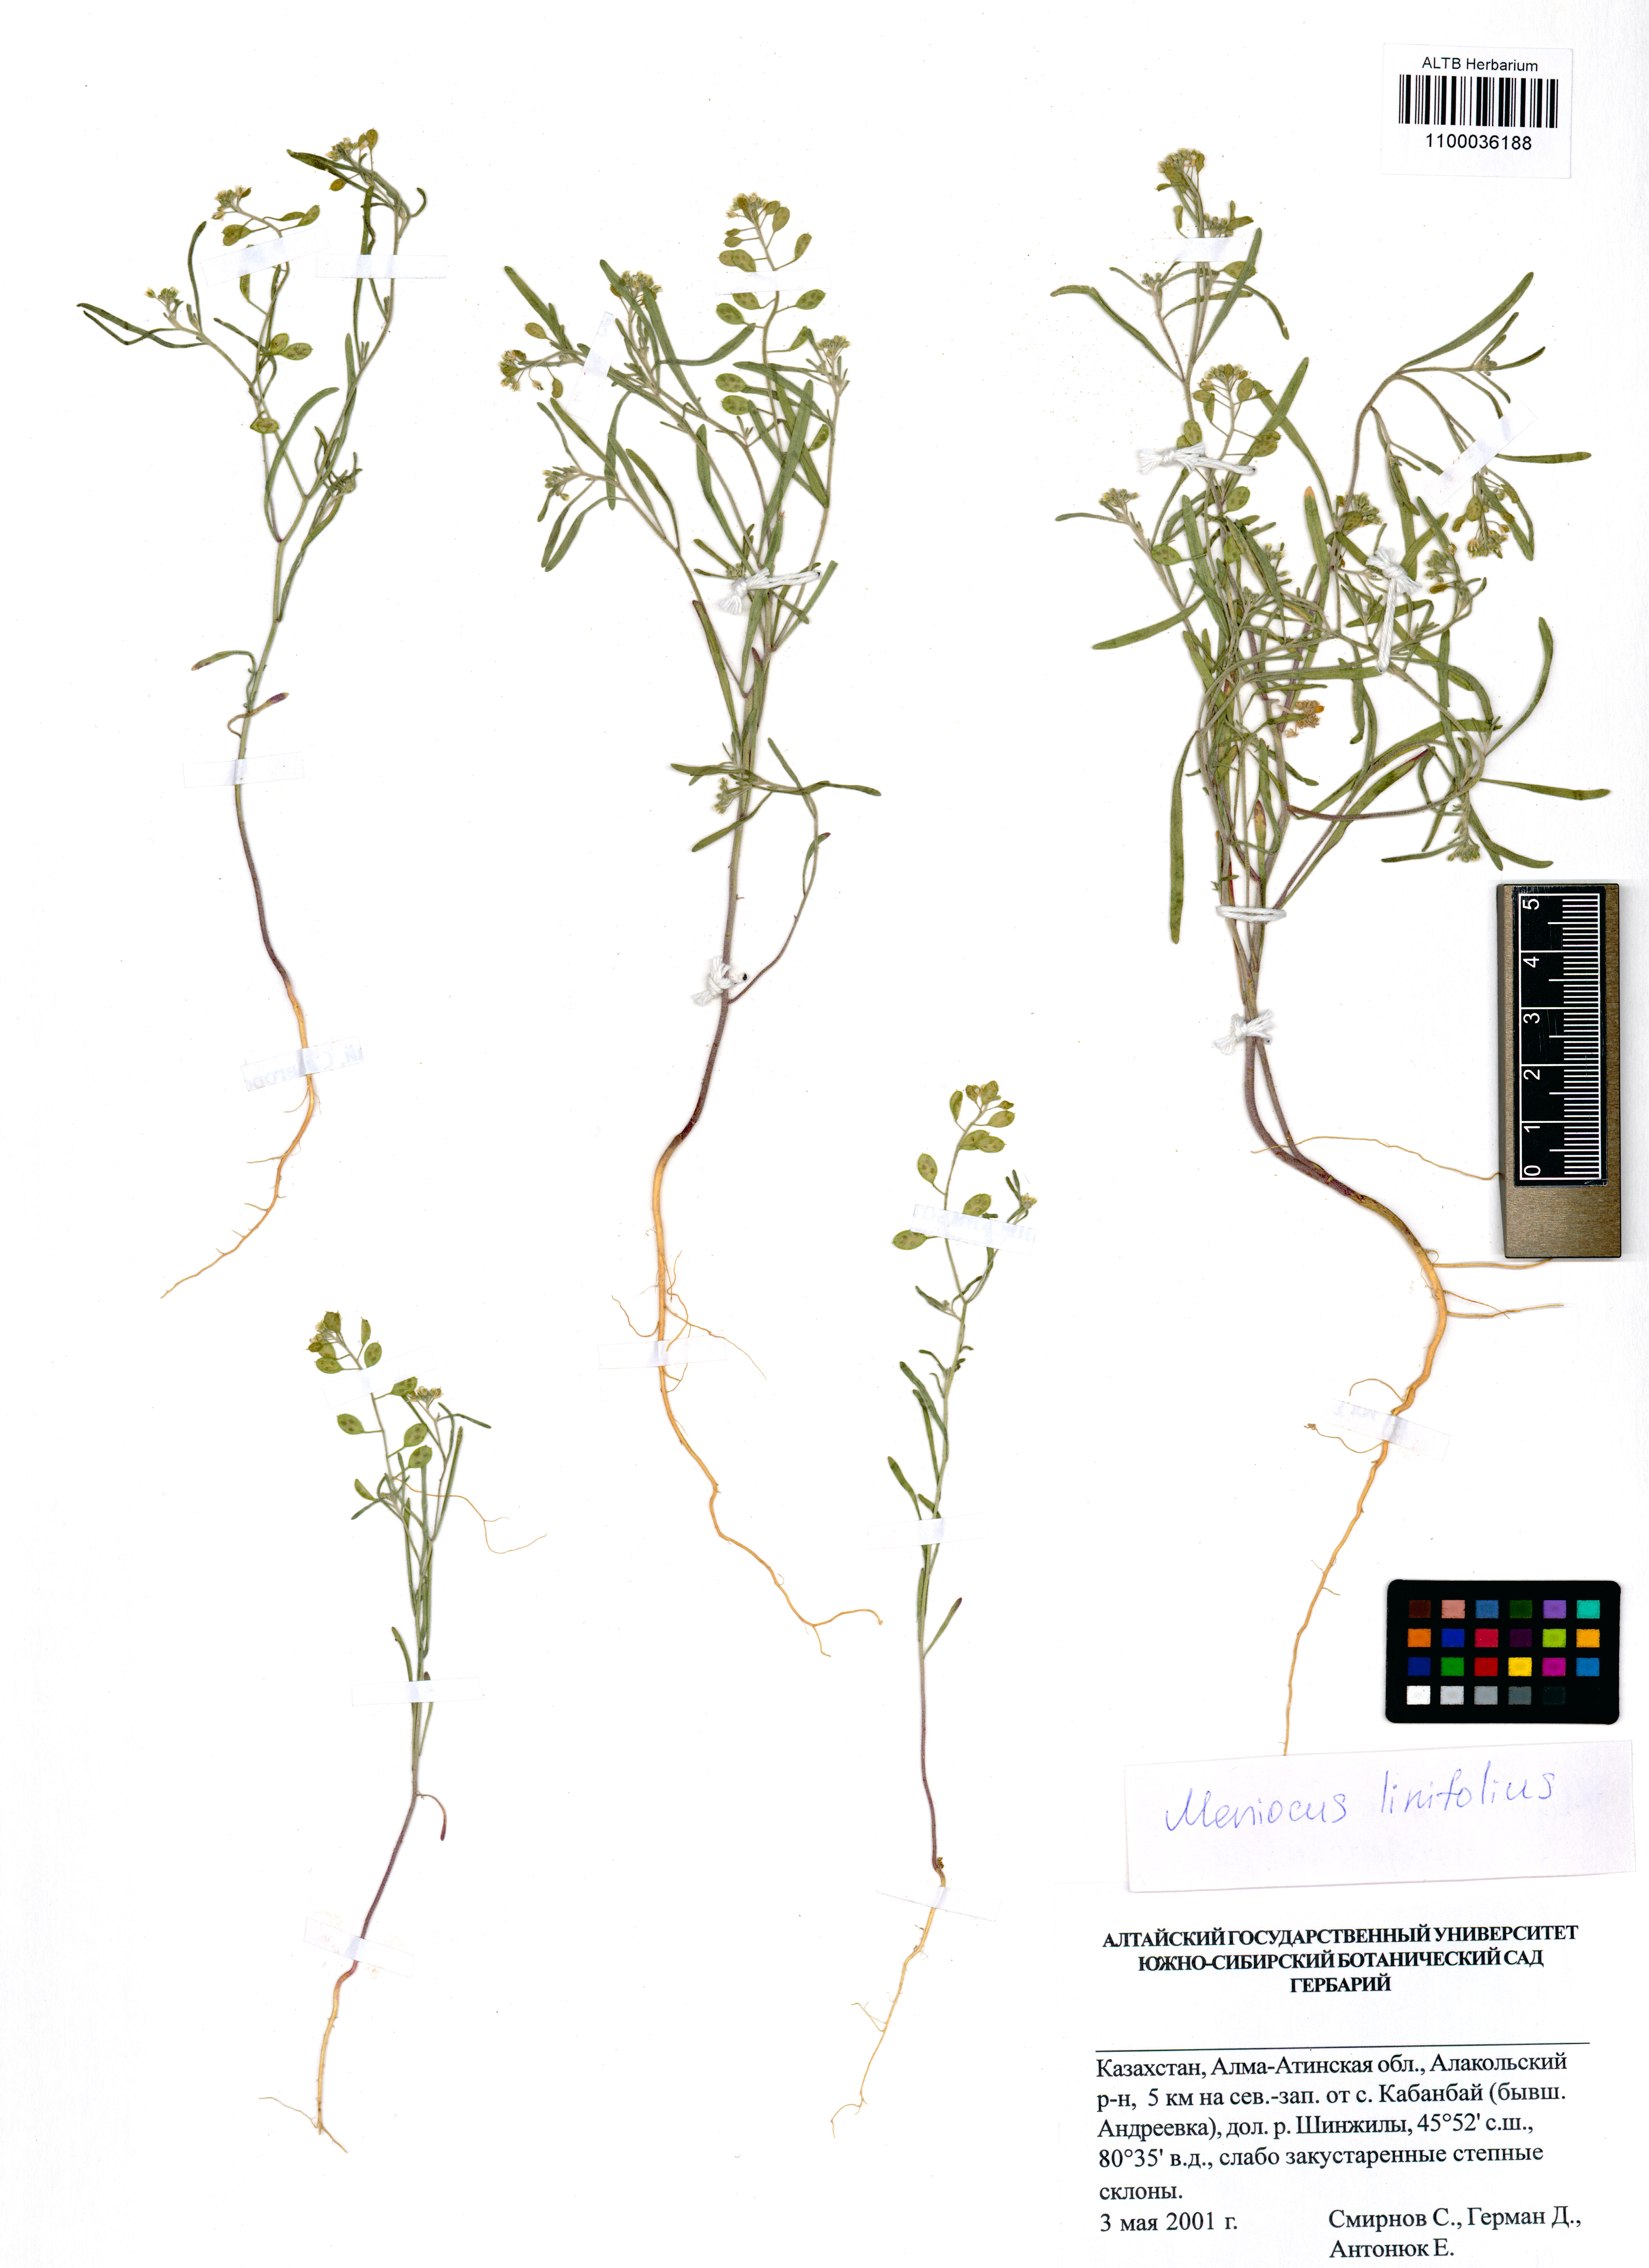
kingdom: Plantae
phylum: Tracheophyta
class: Magnoliopsida
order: Brassicales
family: Brassicaceae
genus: Meniocus
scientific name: Meniocus linifolius
